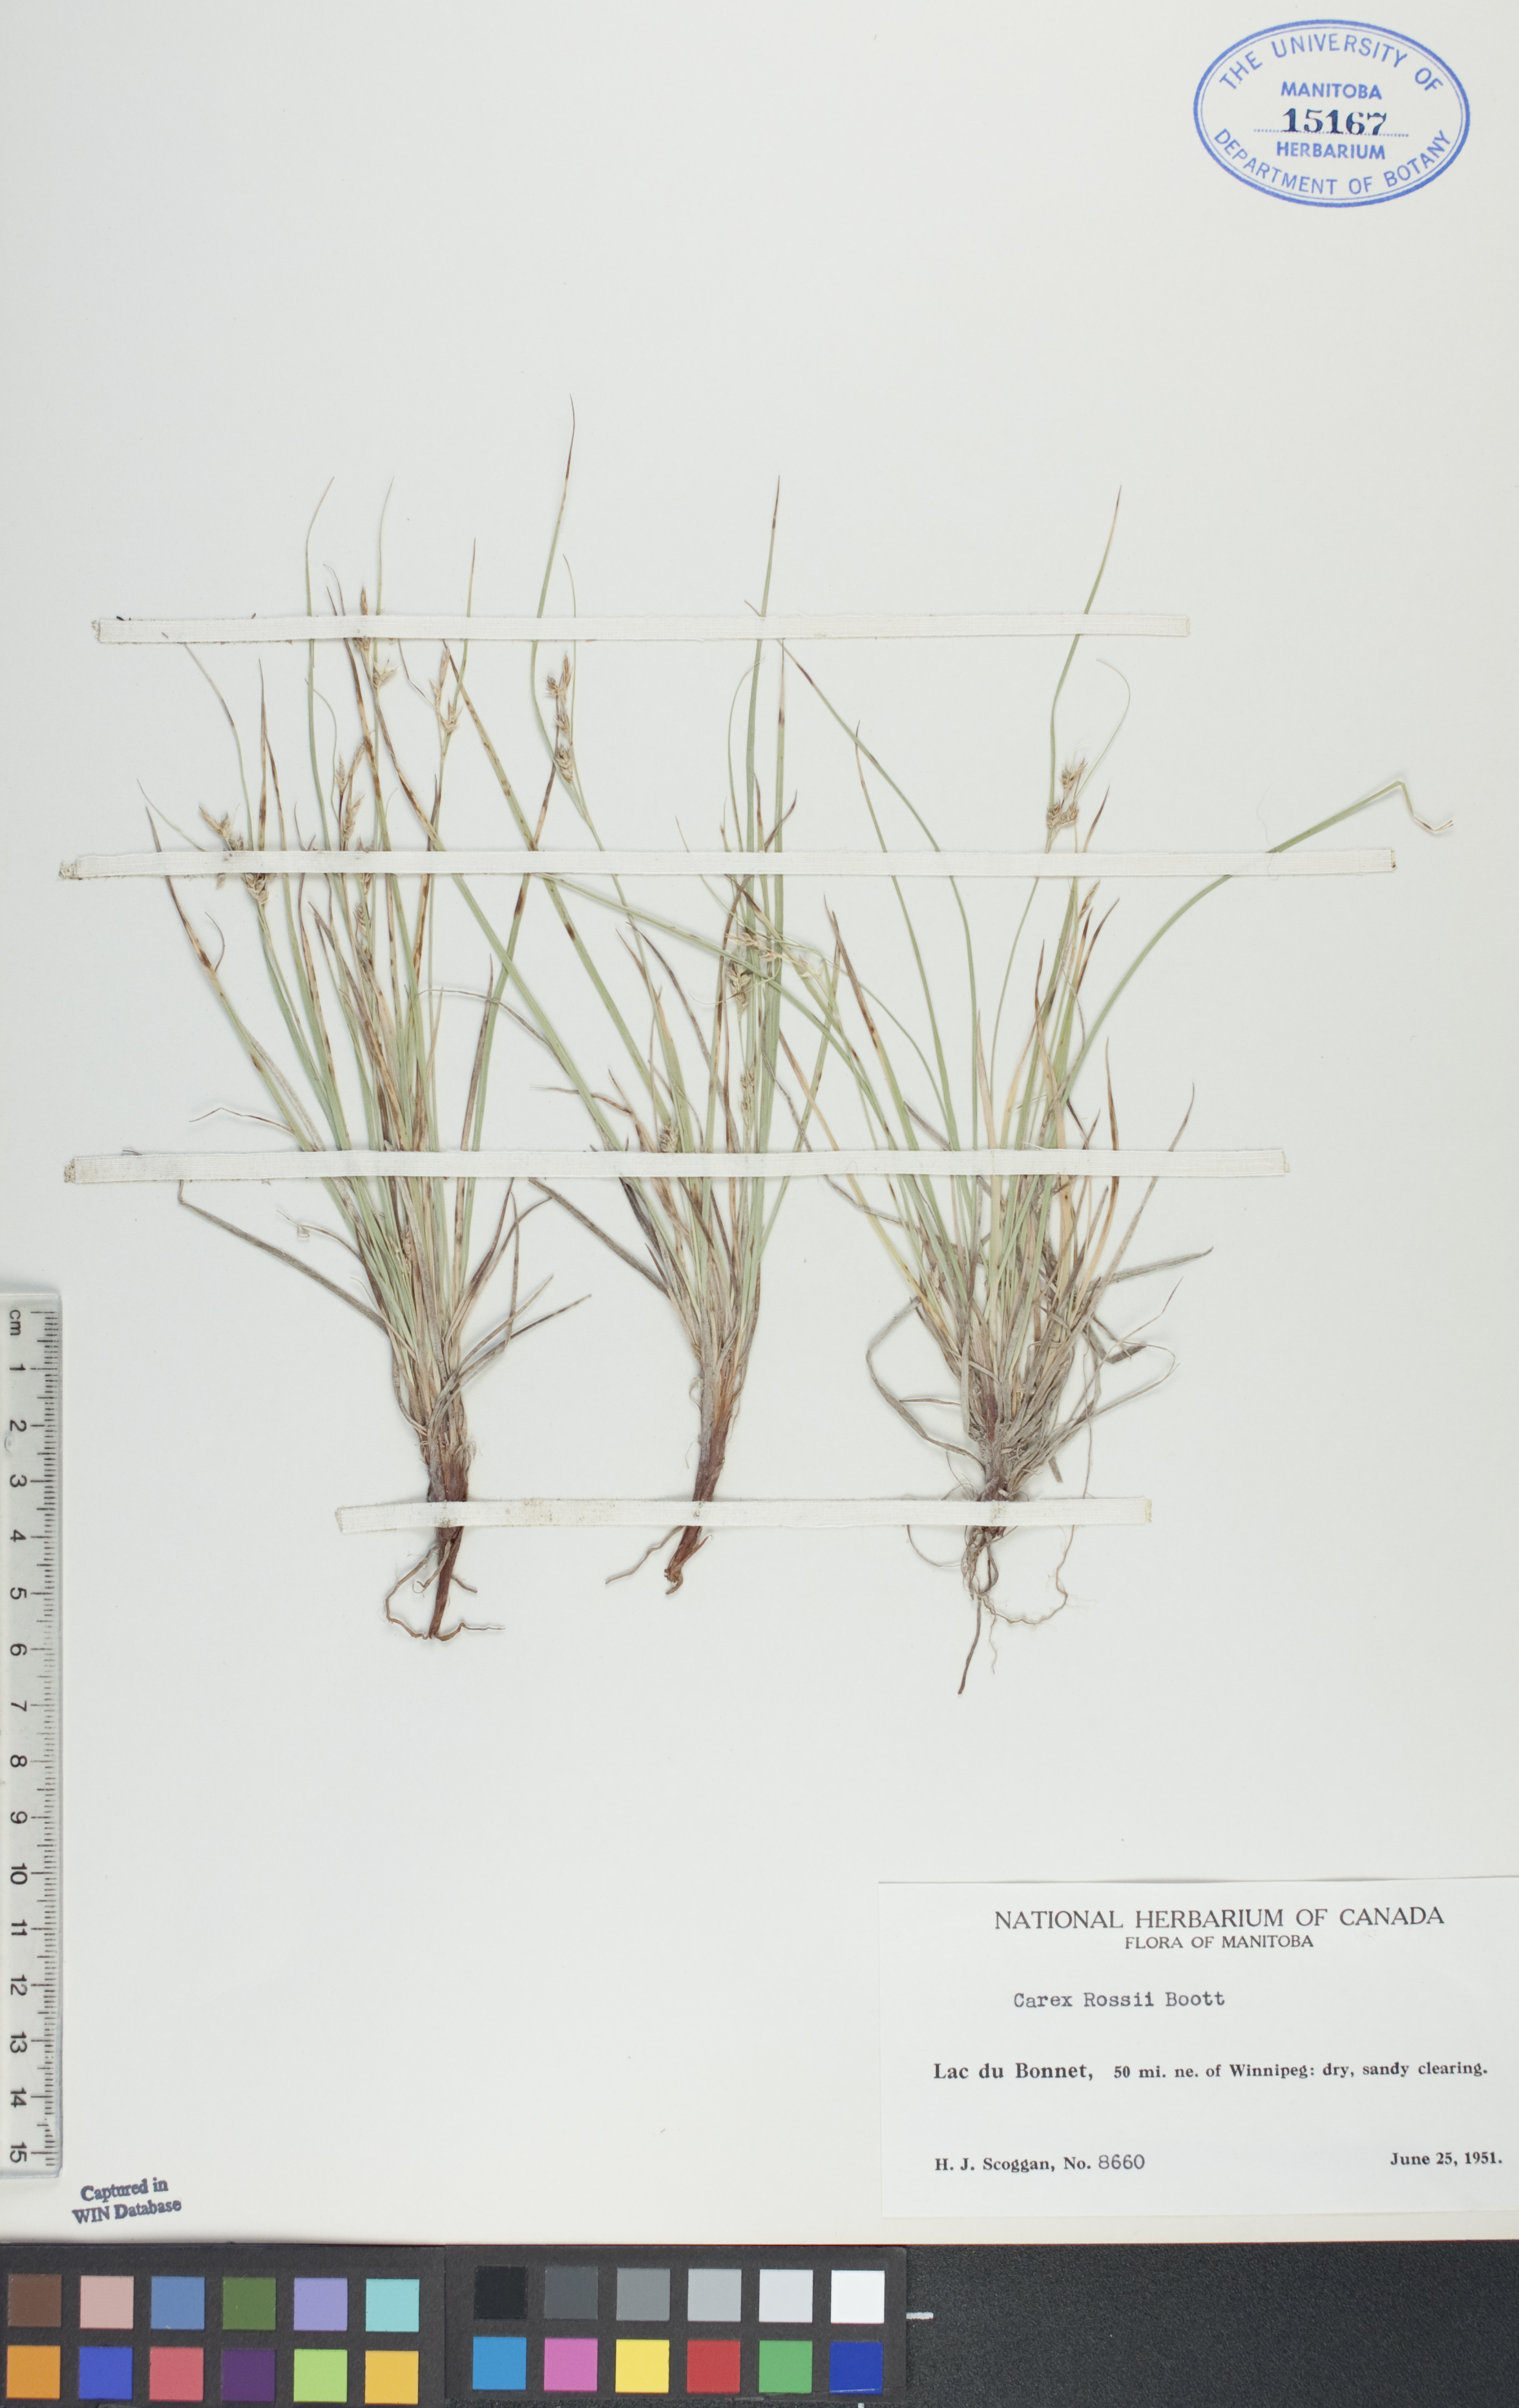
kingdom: Plantae
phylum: Tracheophyta
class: Liliopsida
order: Poales
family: Cyperaceae
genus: Carex
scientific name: Carex rossii
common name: Ross' sedge
